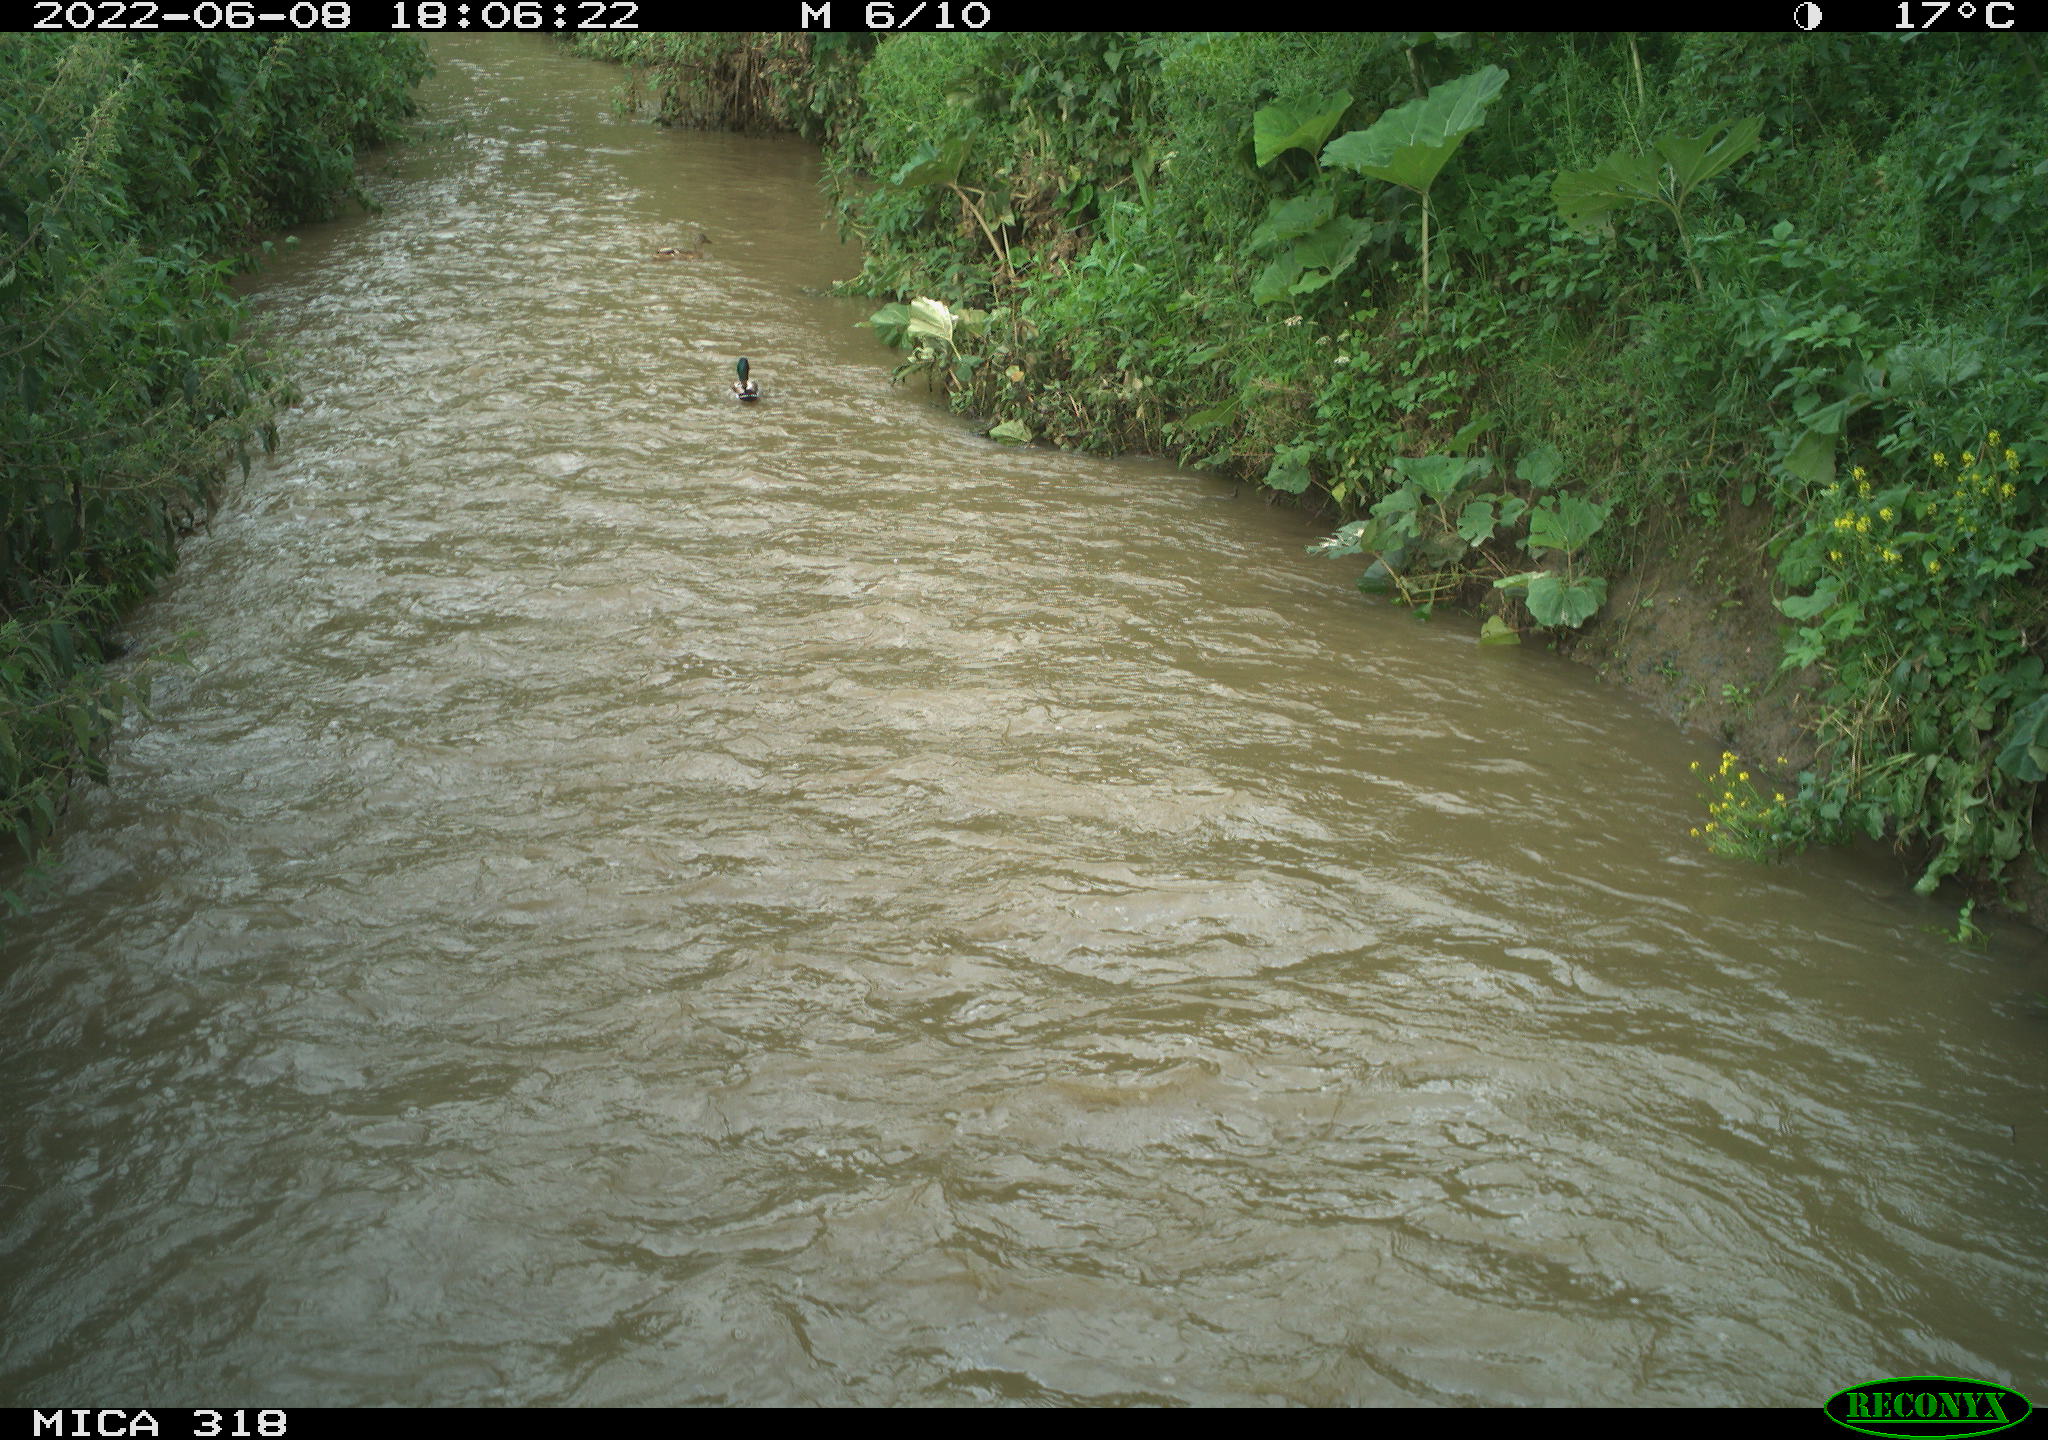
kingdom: Animalia
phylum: Chordata
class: Aves
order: Anseriformes
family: Anatidae
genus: Anas
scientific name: Anas
